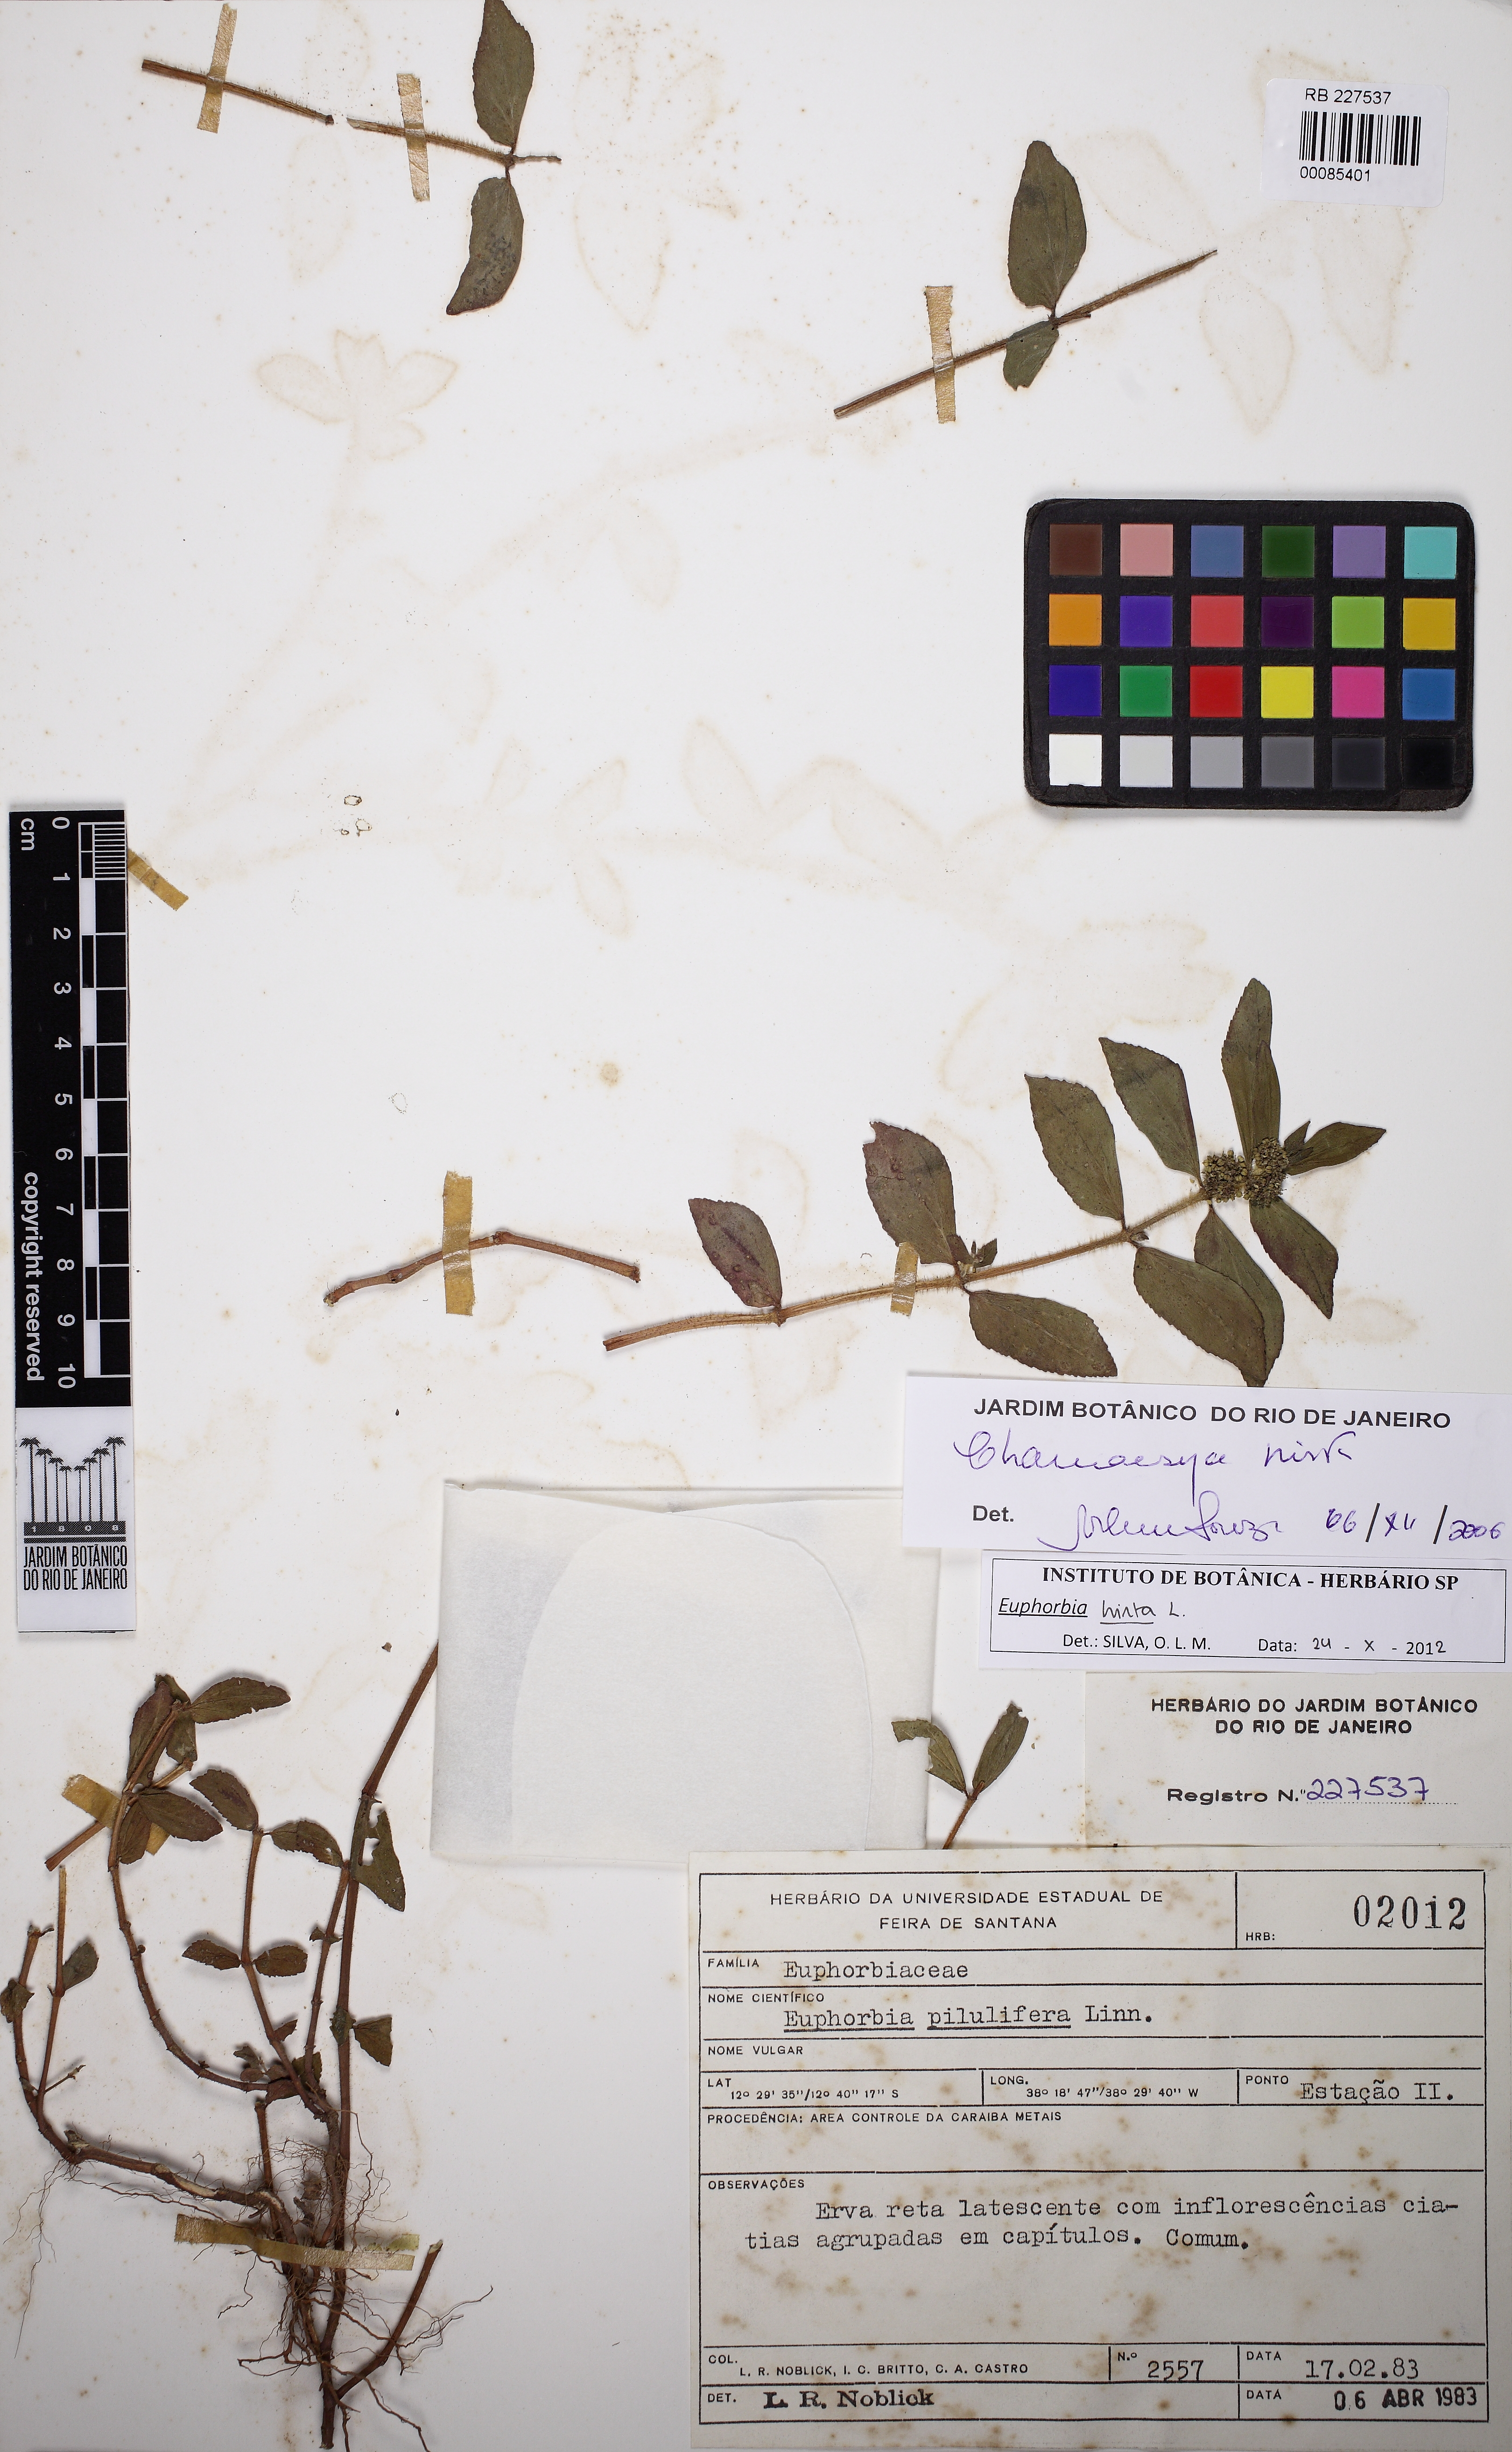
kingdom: Plantae
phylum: Tracheophyta
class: Magnoliopsida
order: Malpighiales
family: Euphorbiaceae
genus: Euphorbia
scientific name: Euphorbia hirta
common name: Pillpod sandmat
